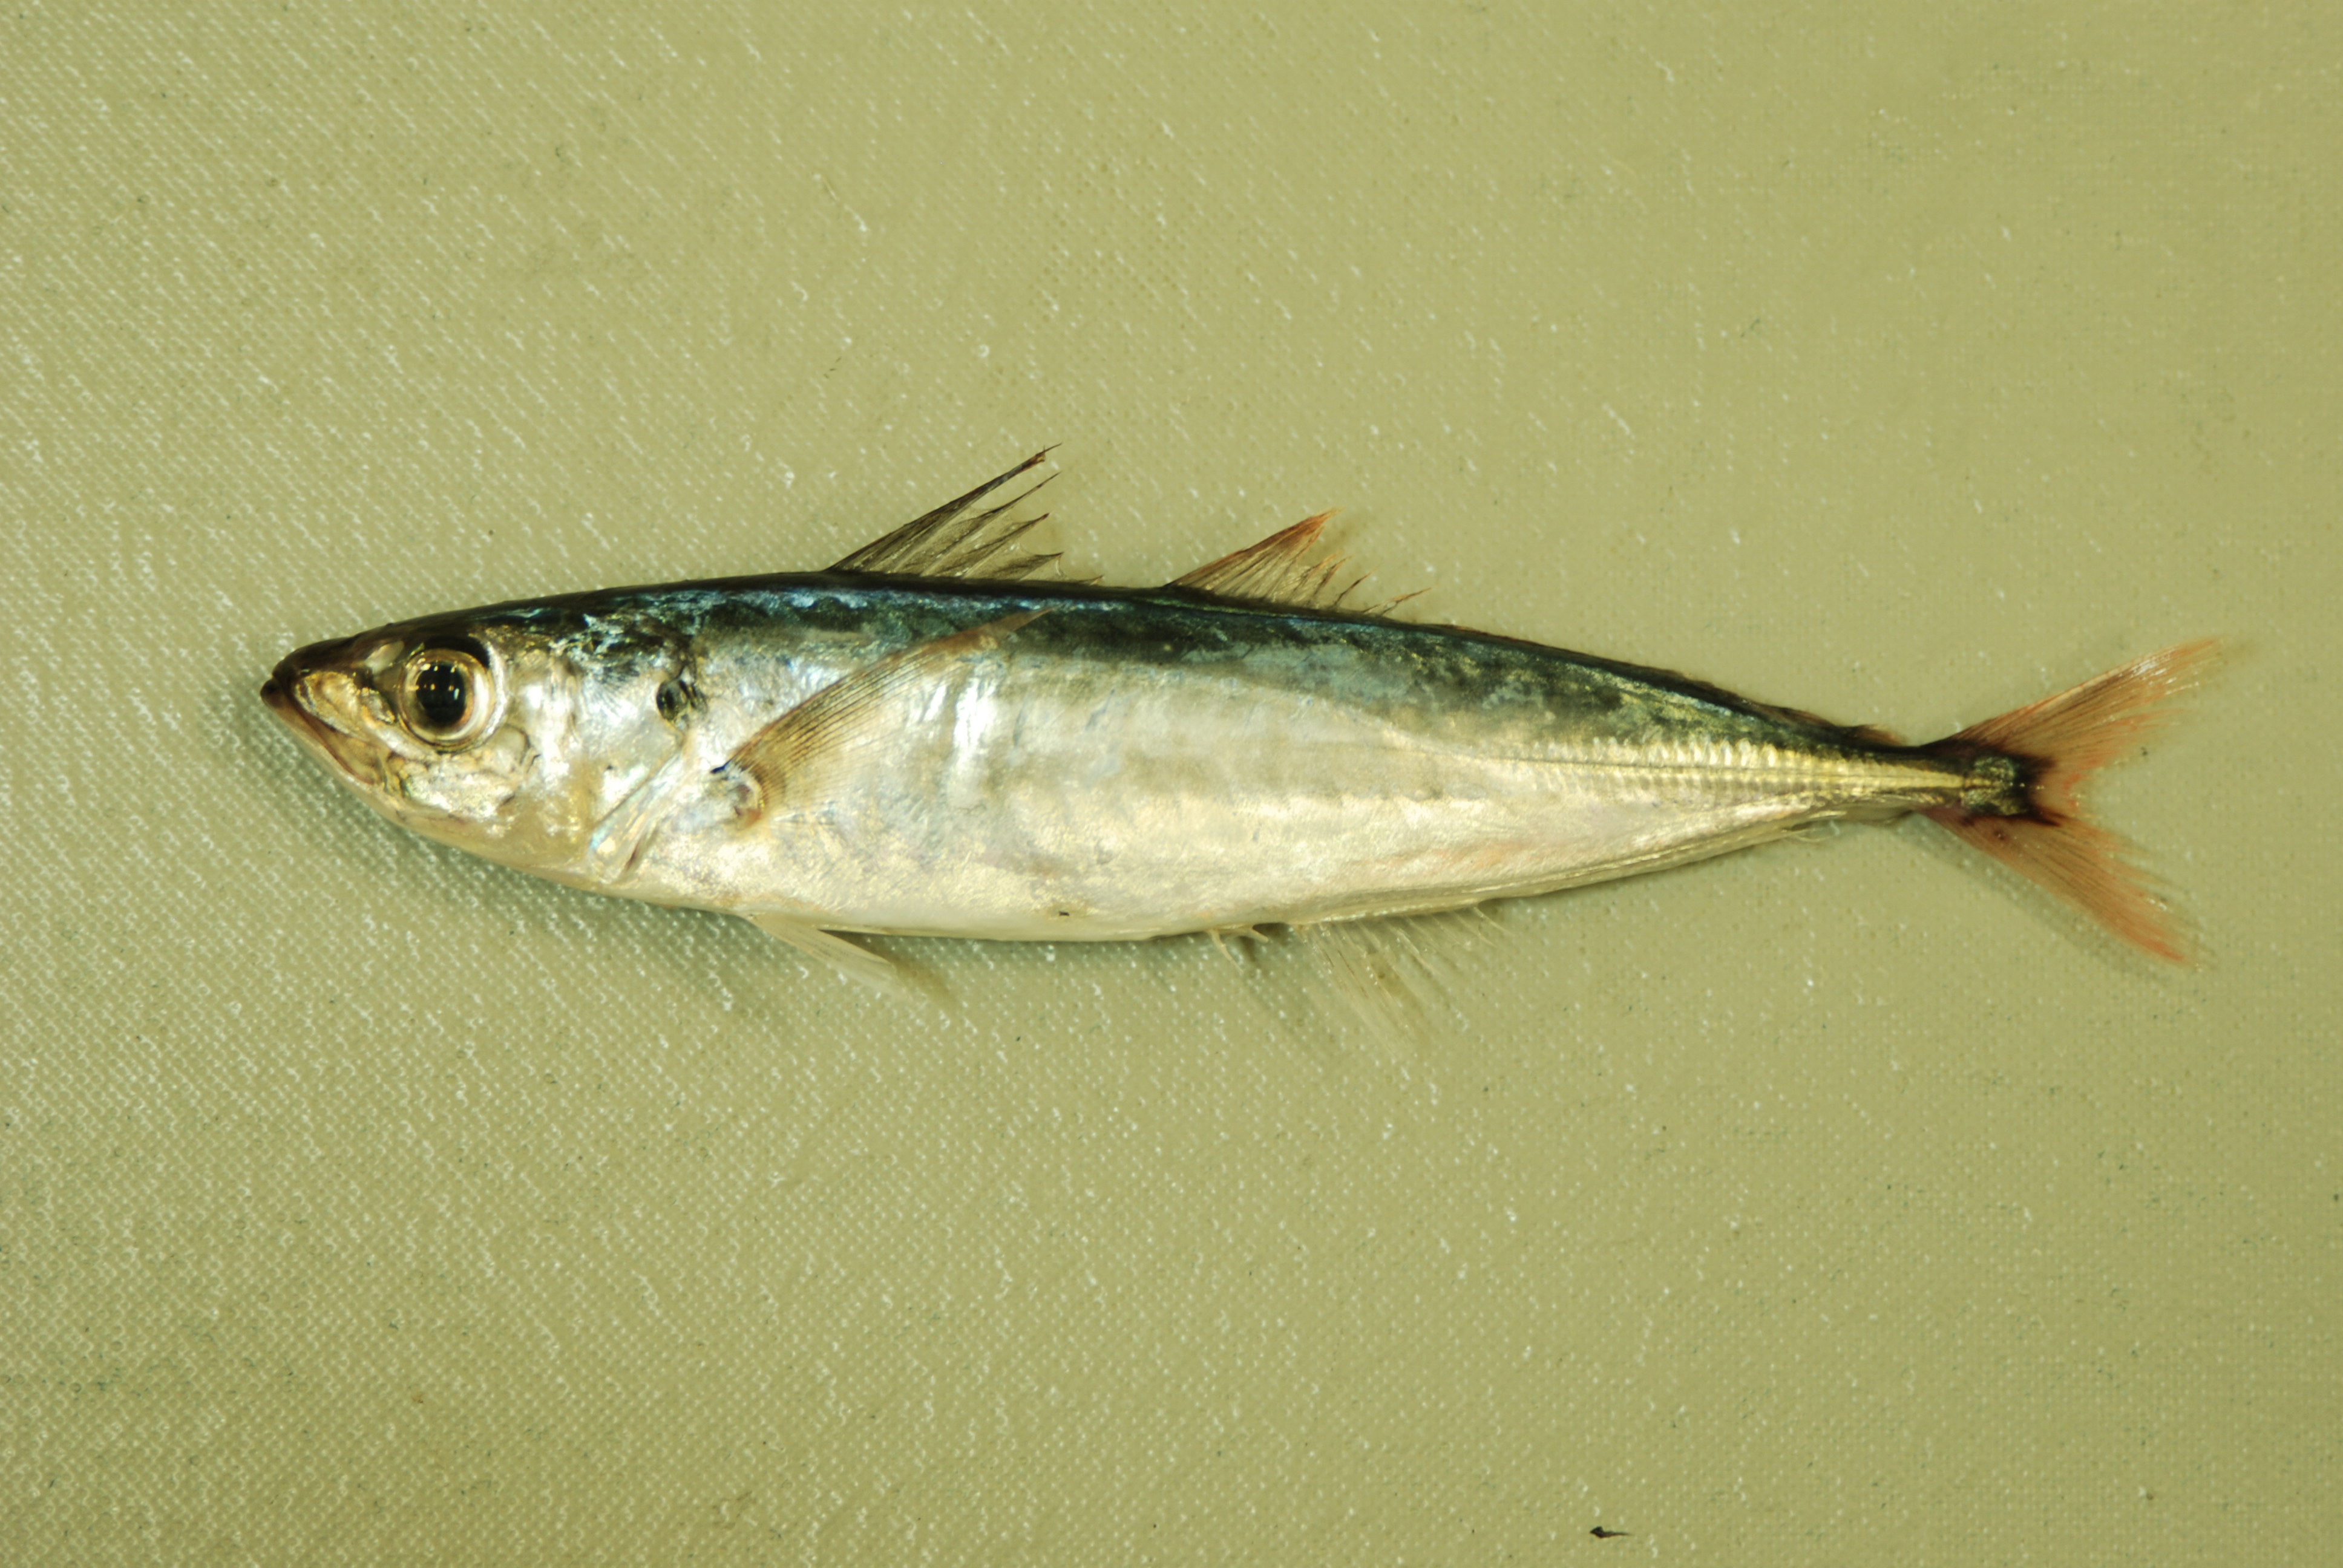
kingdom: Animalia
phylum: Chordata
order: Perciformes
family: Carangidae
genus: Decapterus
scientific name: Decapterus kurroides
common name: Redtail scad
